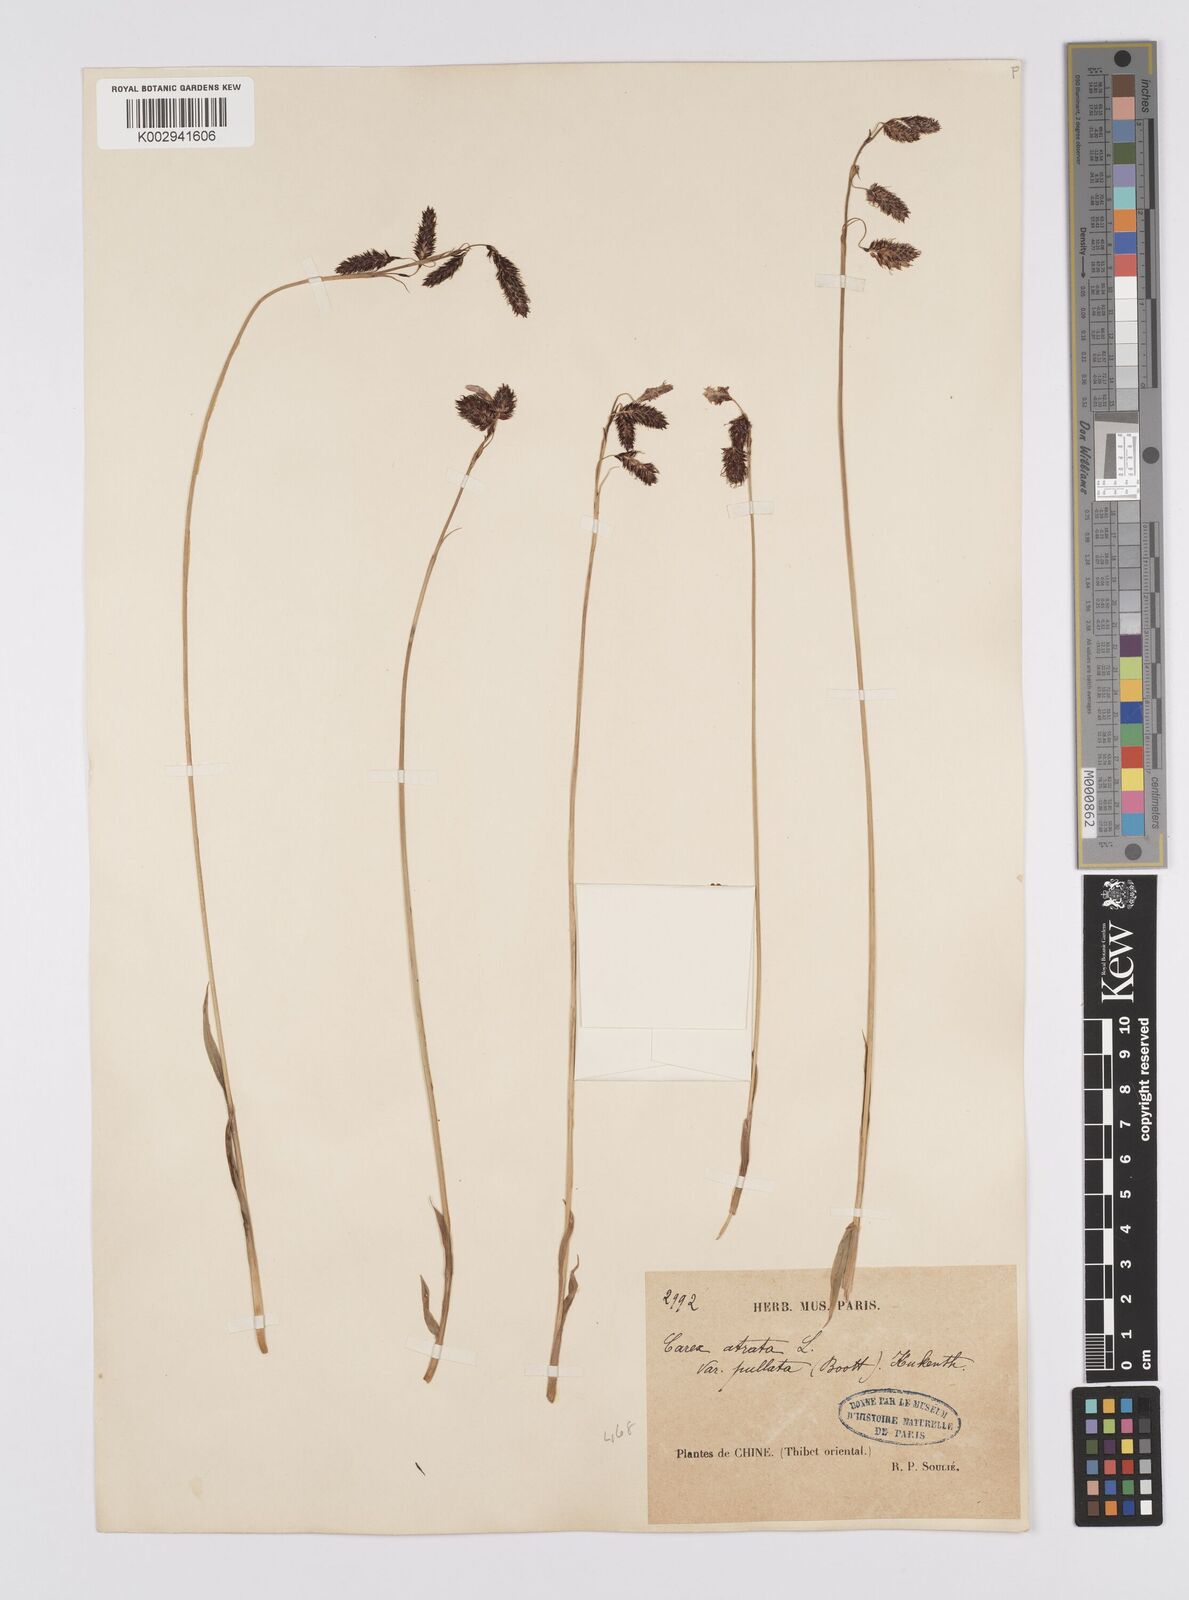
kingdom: Plantae
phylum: Tracheophyta
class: Liliopsida
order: Poales
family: Cyperaceae
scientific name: Cyperaceae
